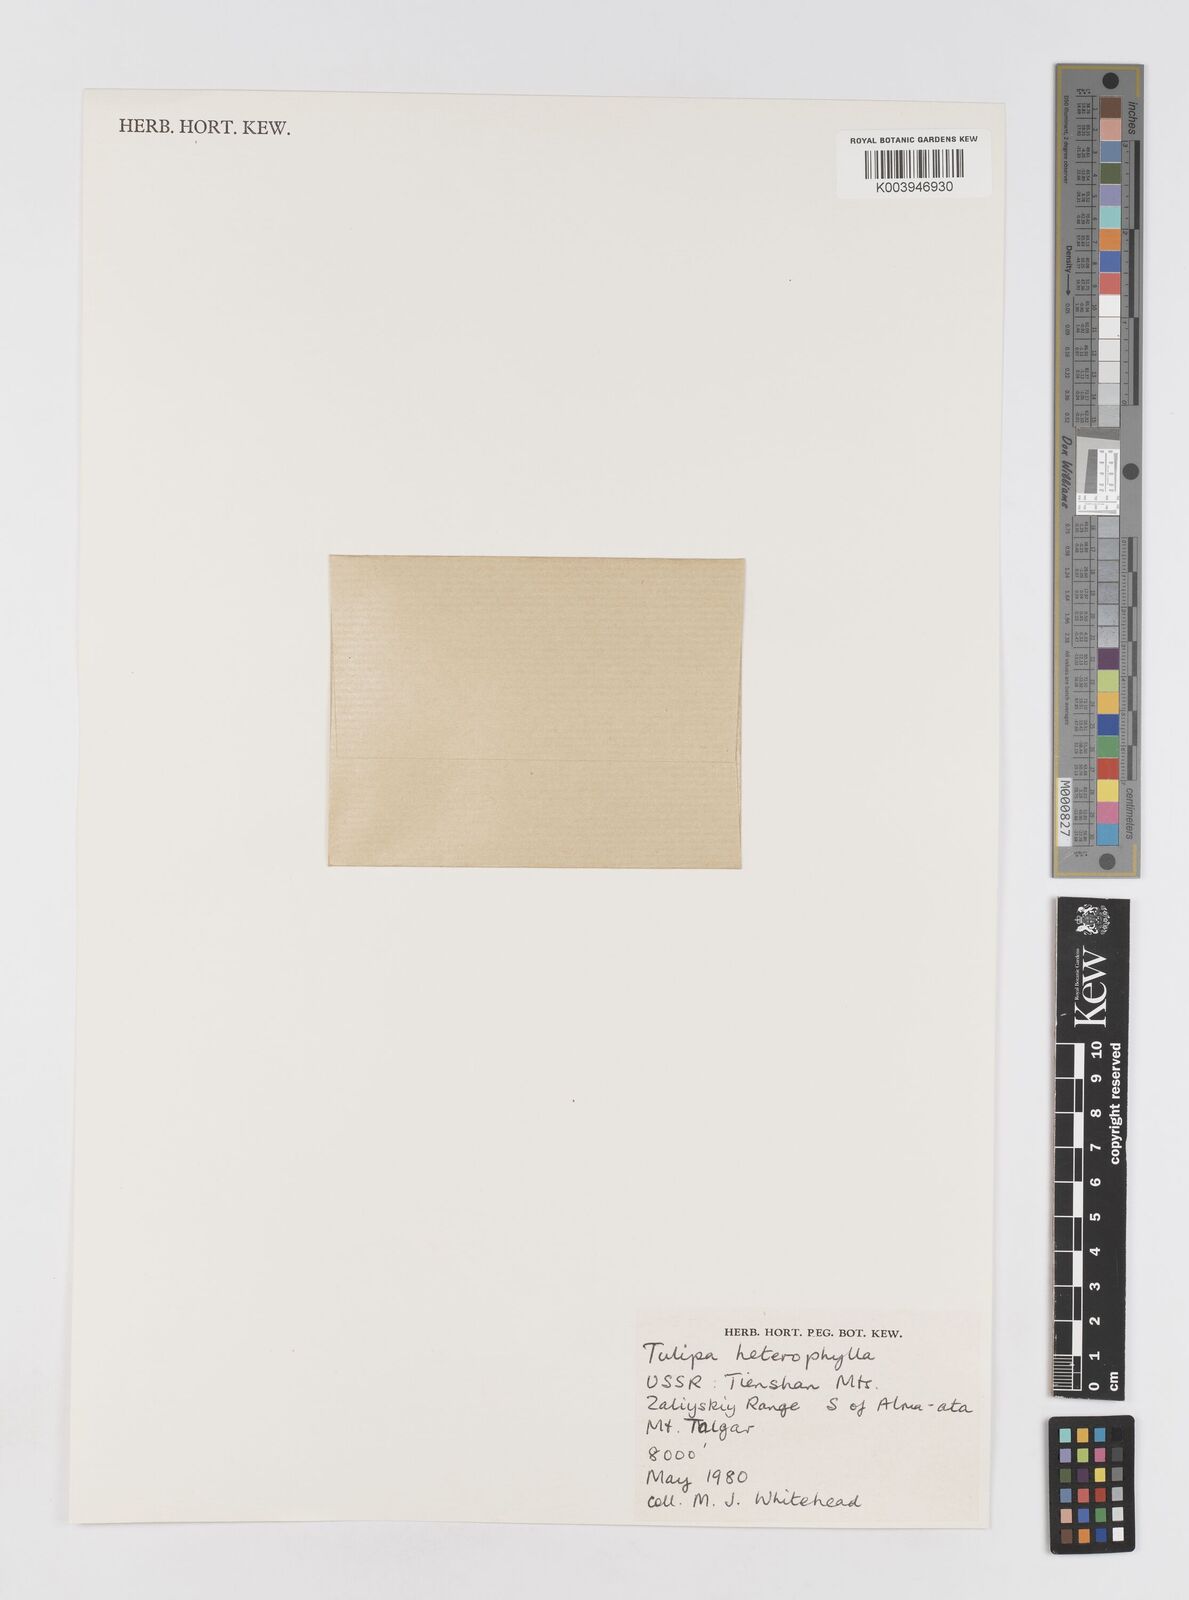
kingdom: Plantae
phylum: Tracheophyta
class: Liliopsida
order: Liliales
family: Liliaceae
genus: Tulipa
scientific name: Tulipa heterophylla
